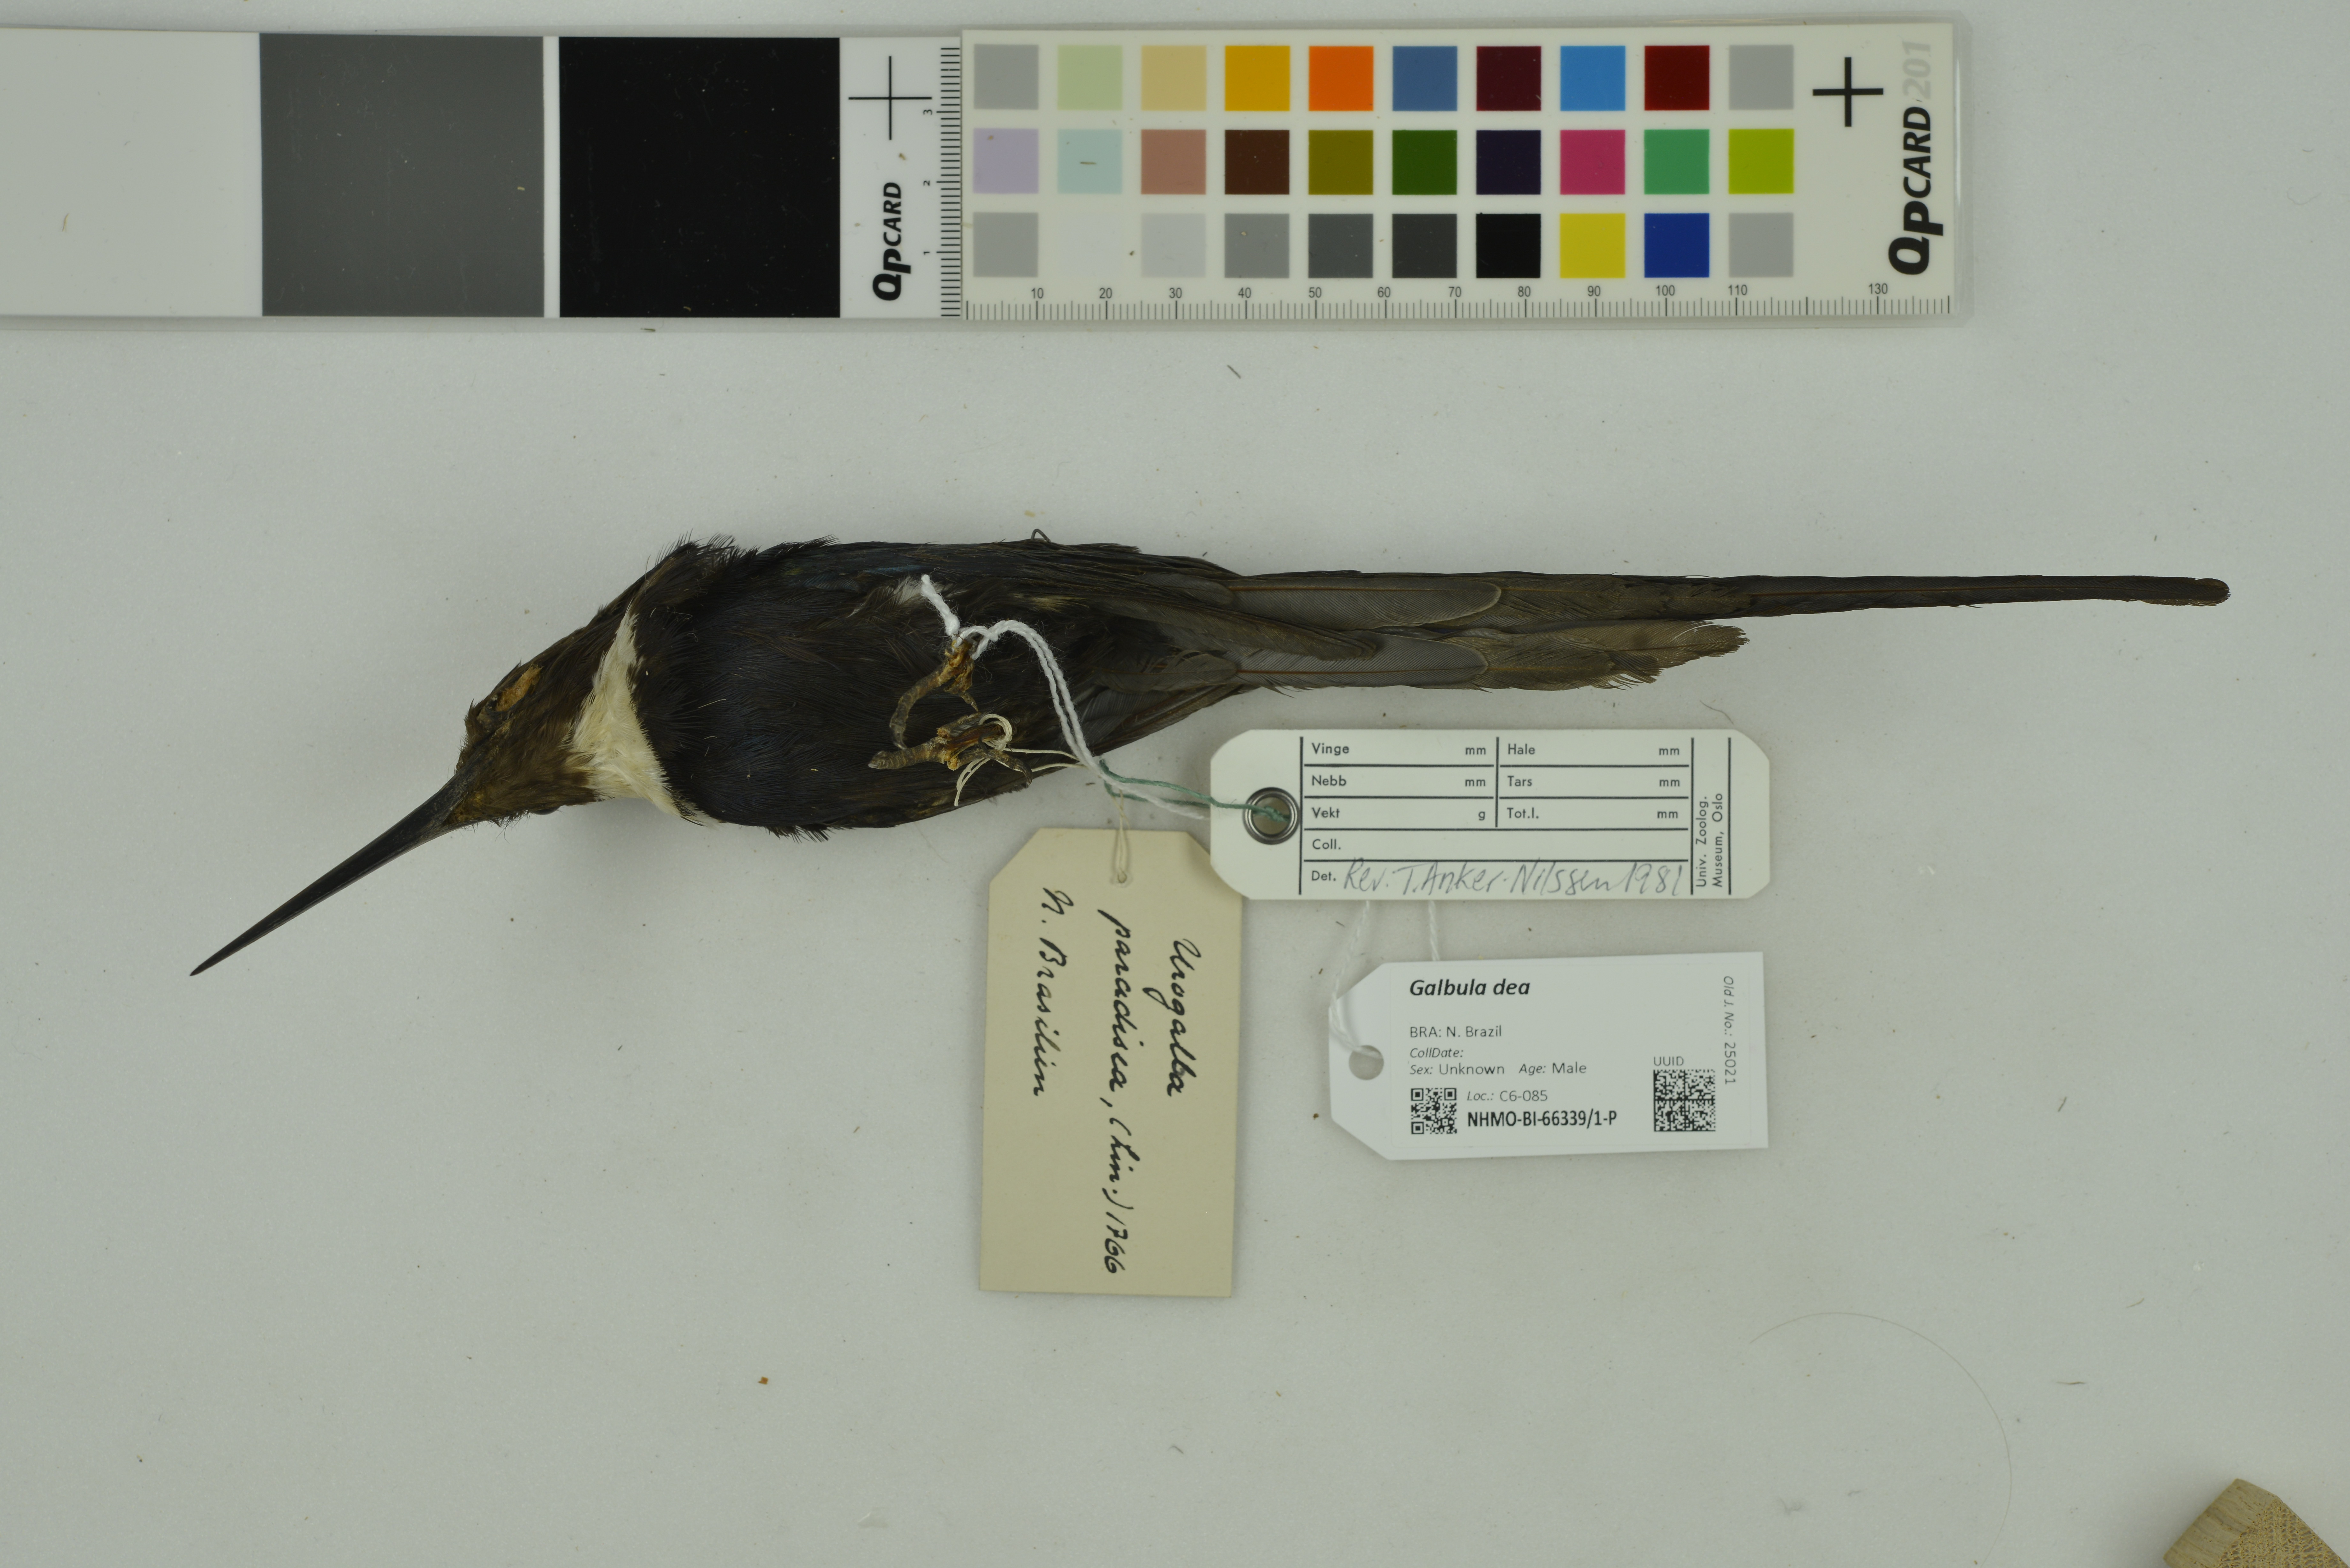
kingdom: Animalia
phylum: Chordata
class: Aves
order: Piciformes
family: Galbulidae
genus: Galbula
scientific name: Galbula dea
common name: Paradise jacamar
